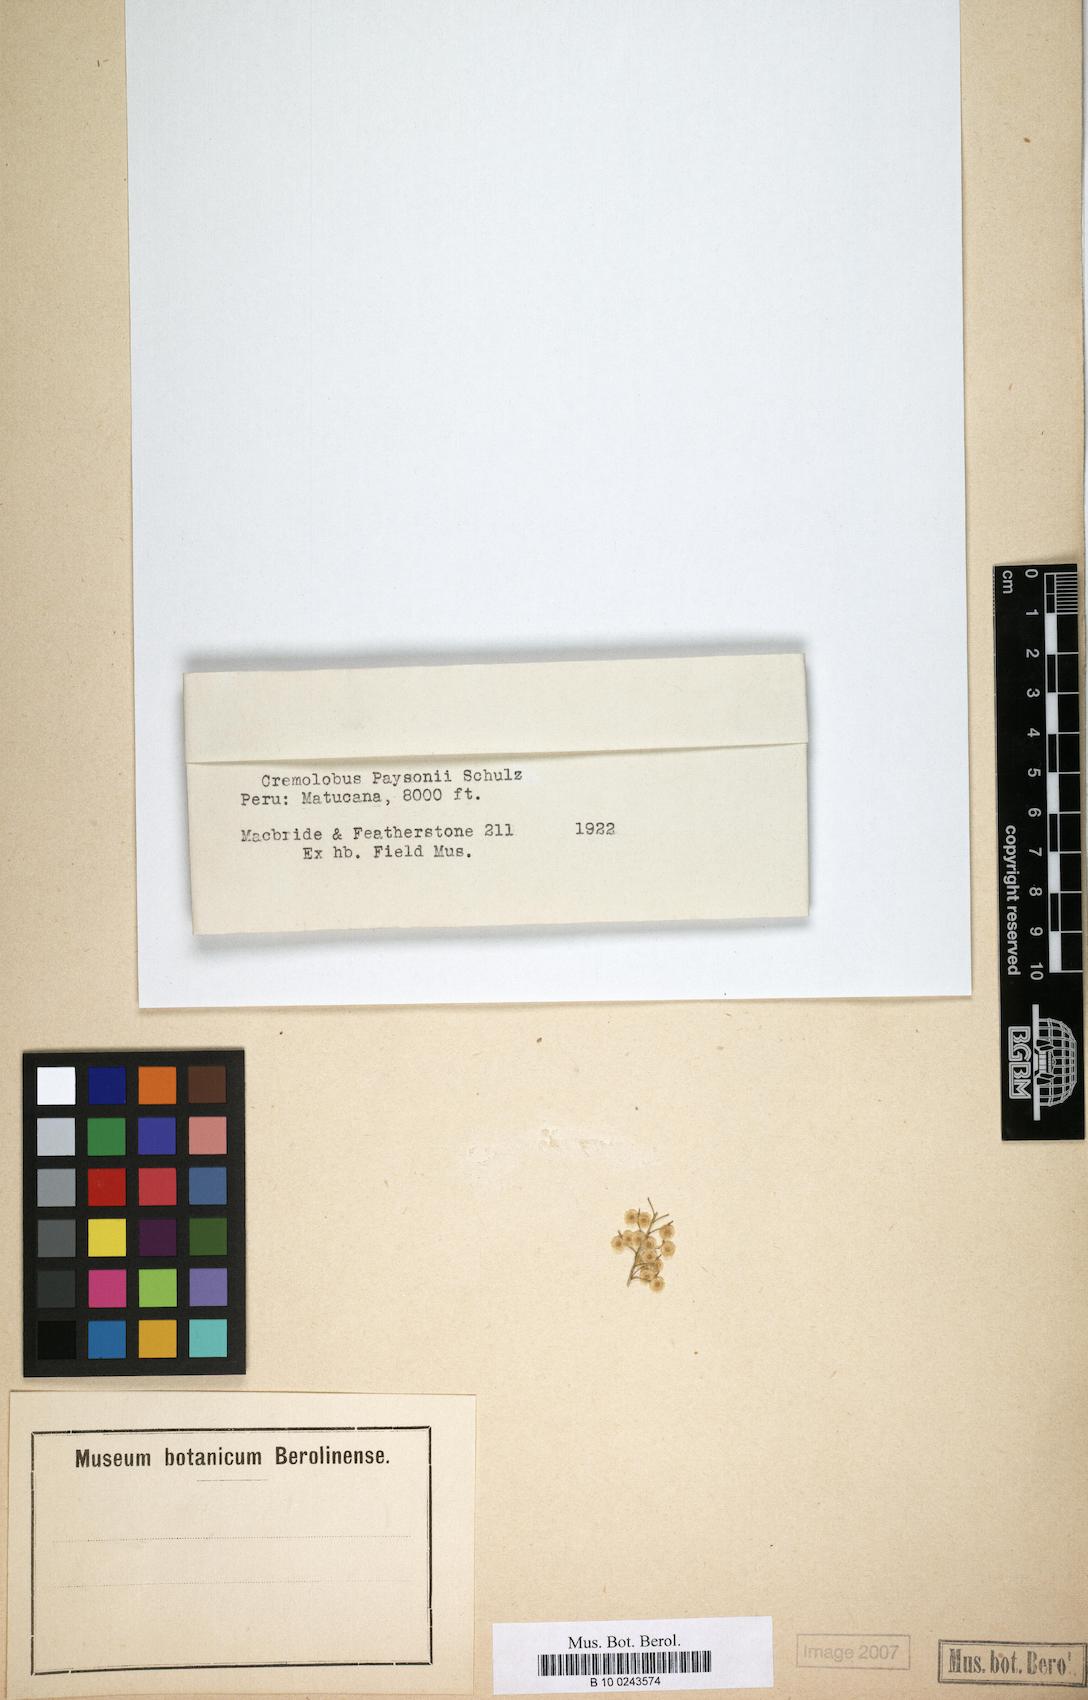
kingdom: Plantae
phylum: Tracheophyta
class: Magnoliopsida
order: Brassicales
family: Brassicaceae
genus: Cremolobus
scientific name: Cremolobus chilensis
